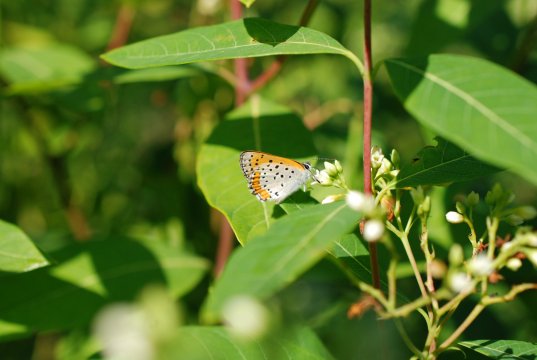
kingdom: Animalia
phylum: Arthropoda
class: Insecta
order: Lepidoptera
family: Sesiidae
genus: Sesia
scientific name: Sesia Lycaena hyllus
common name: Bronze Copper
